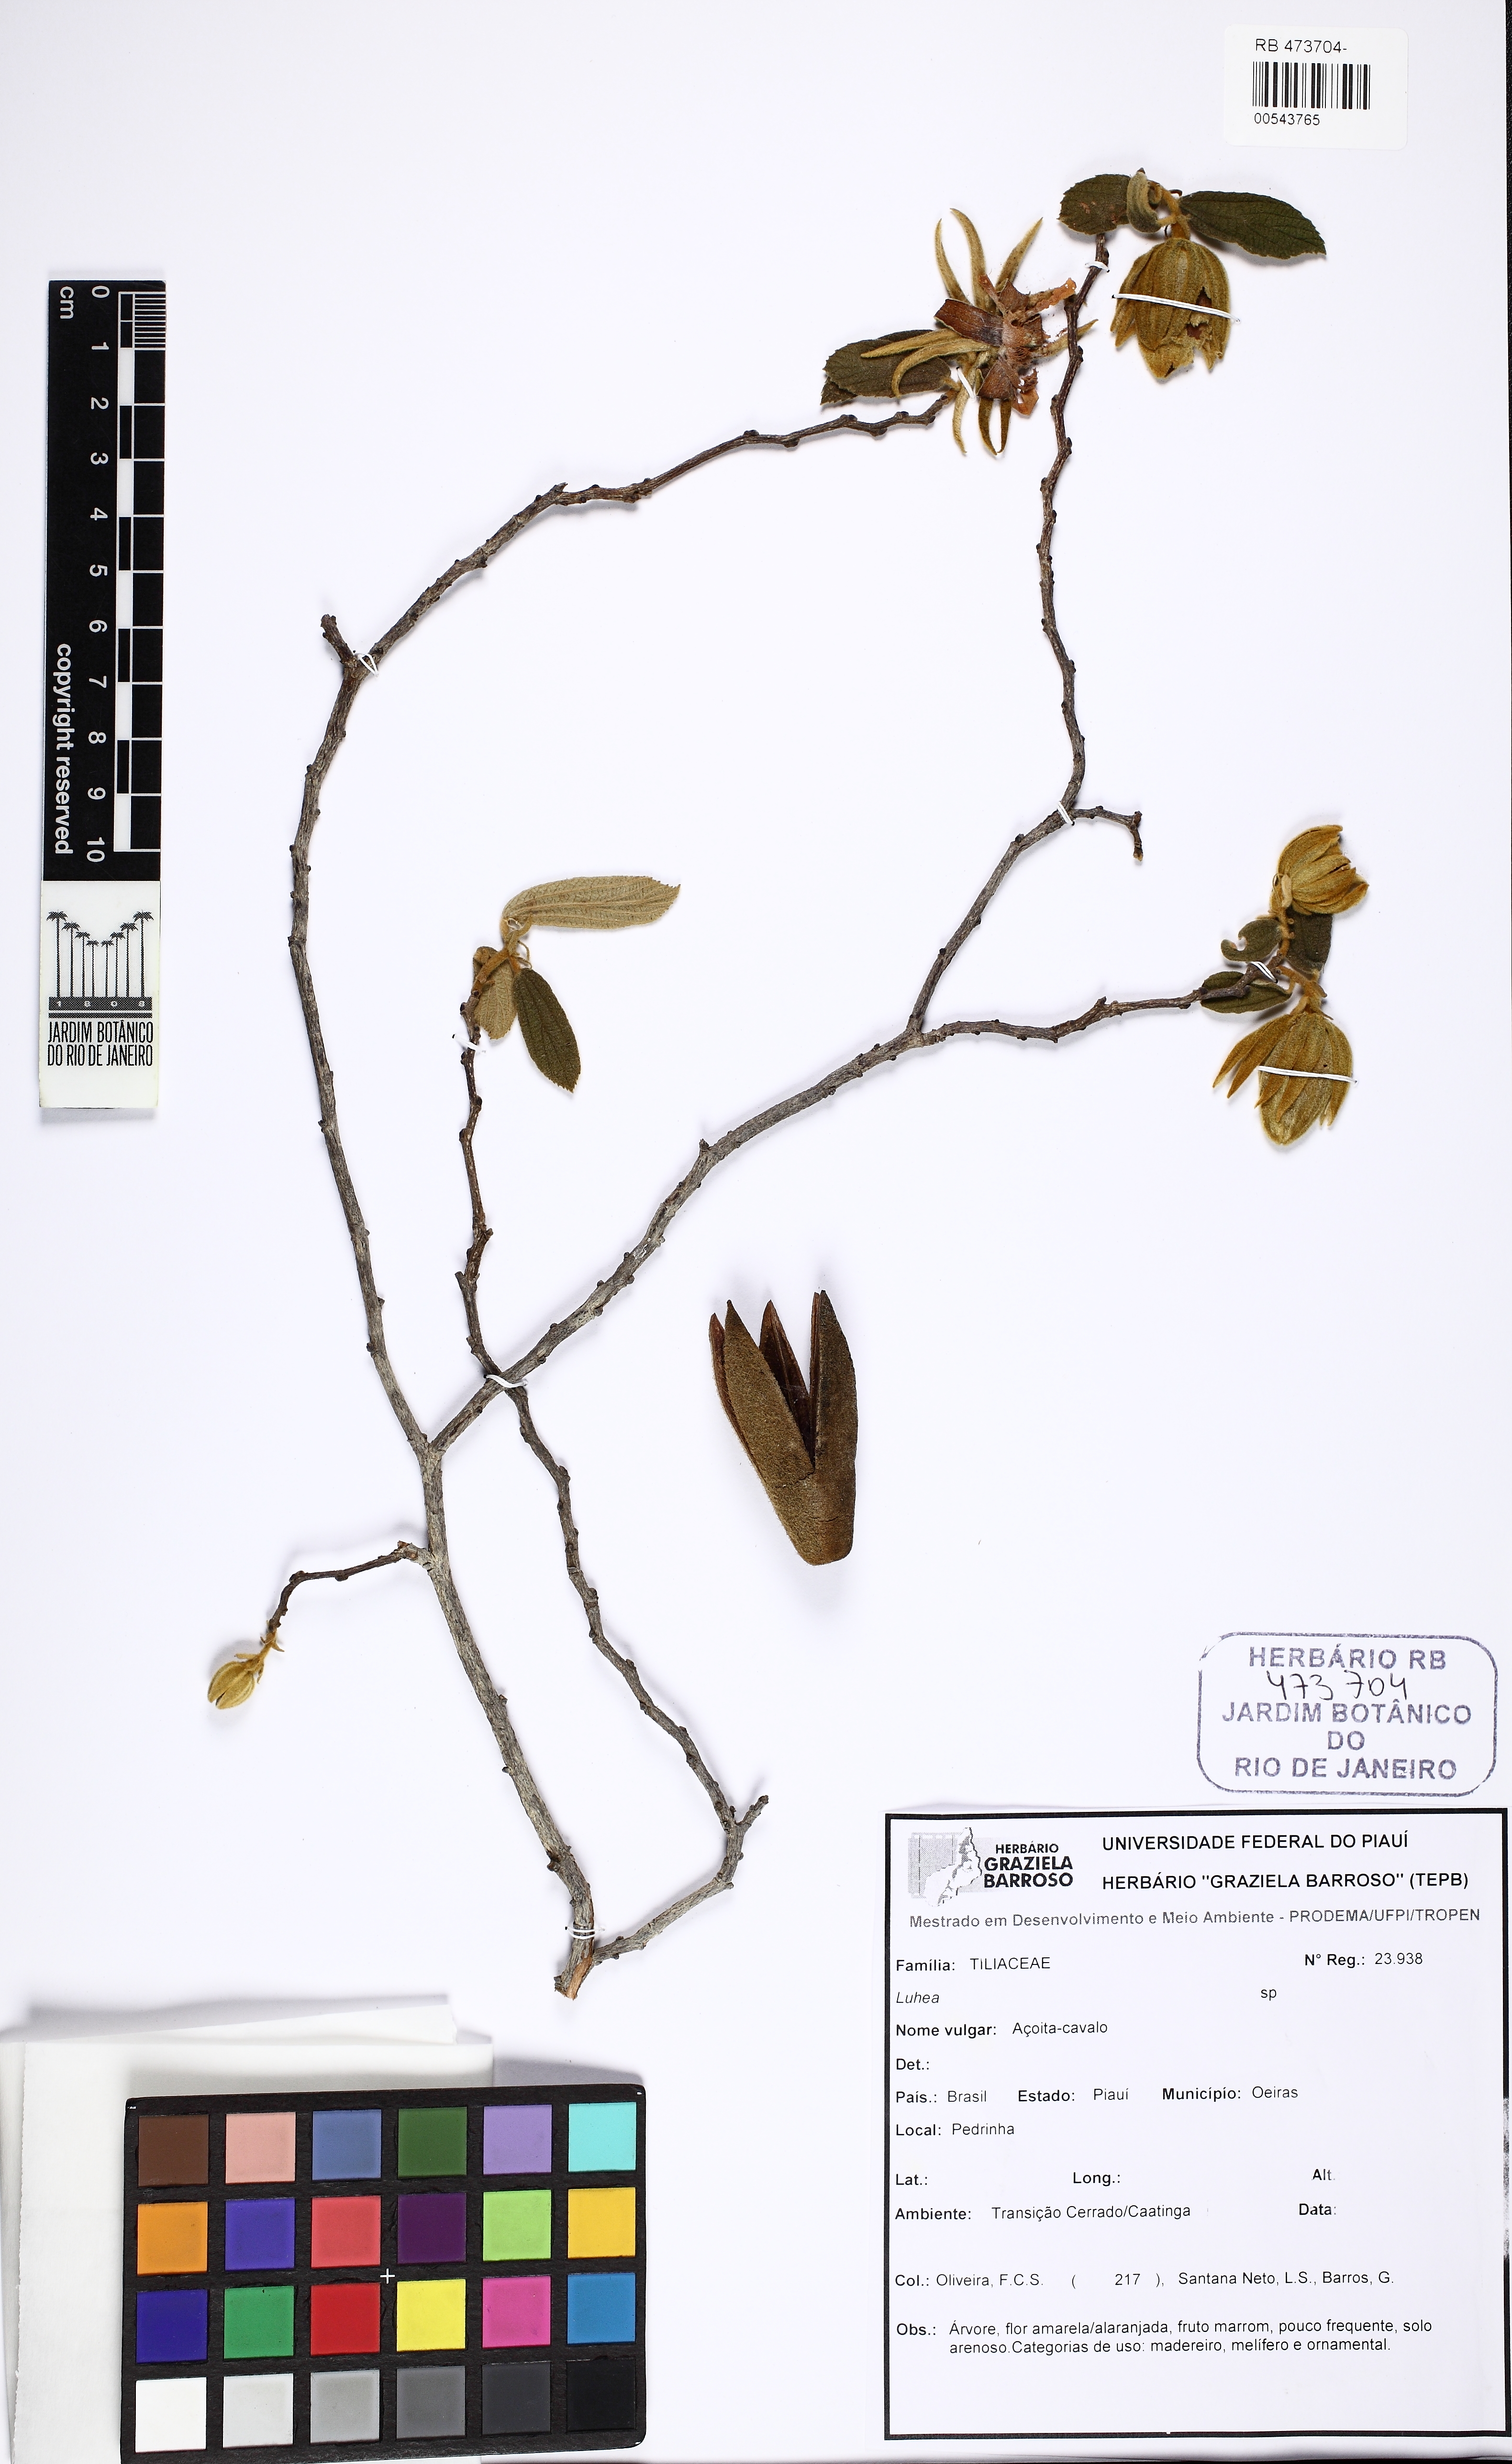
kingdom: Plantae
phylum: Tracheophyta
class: Magnoliopsida
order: Malvales
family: Malvaceae
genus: Luehea
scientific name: Luehea burretii
